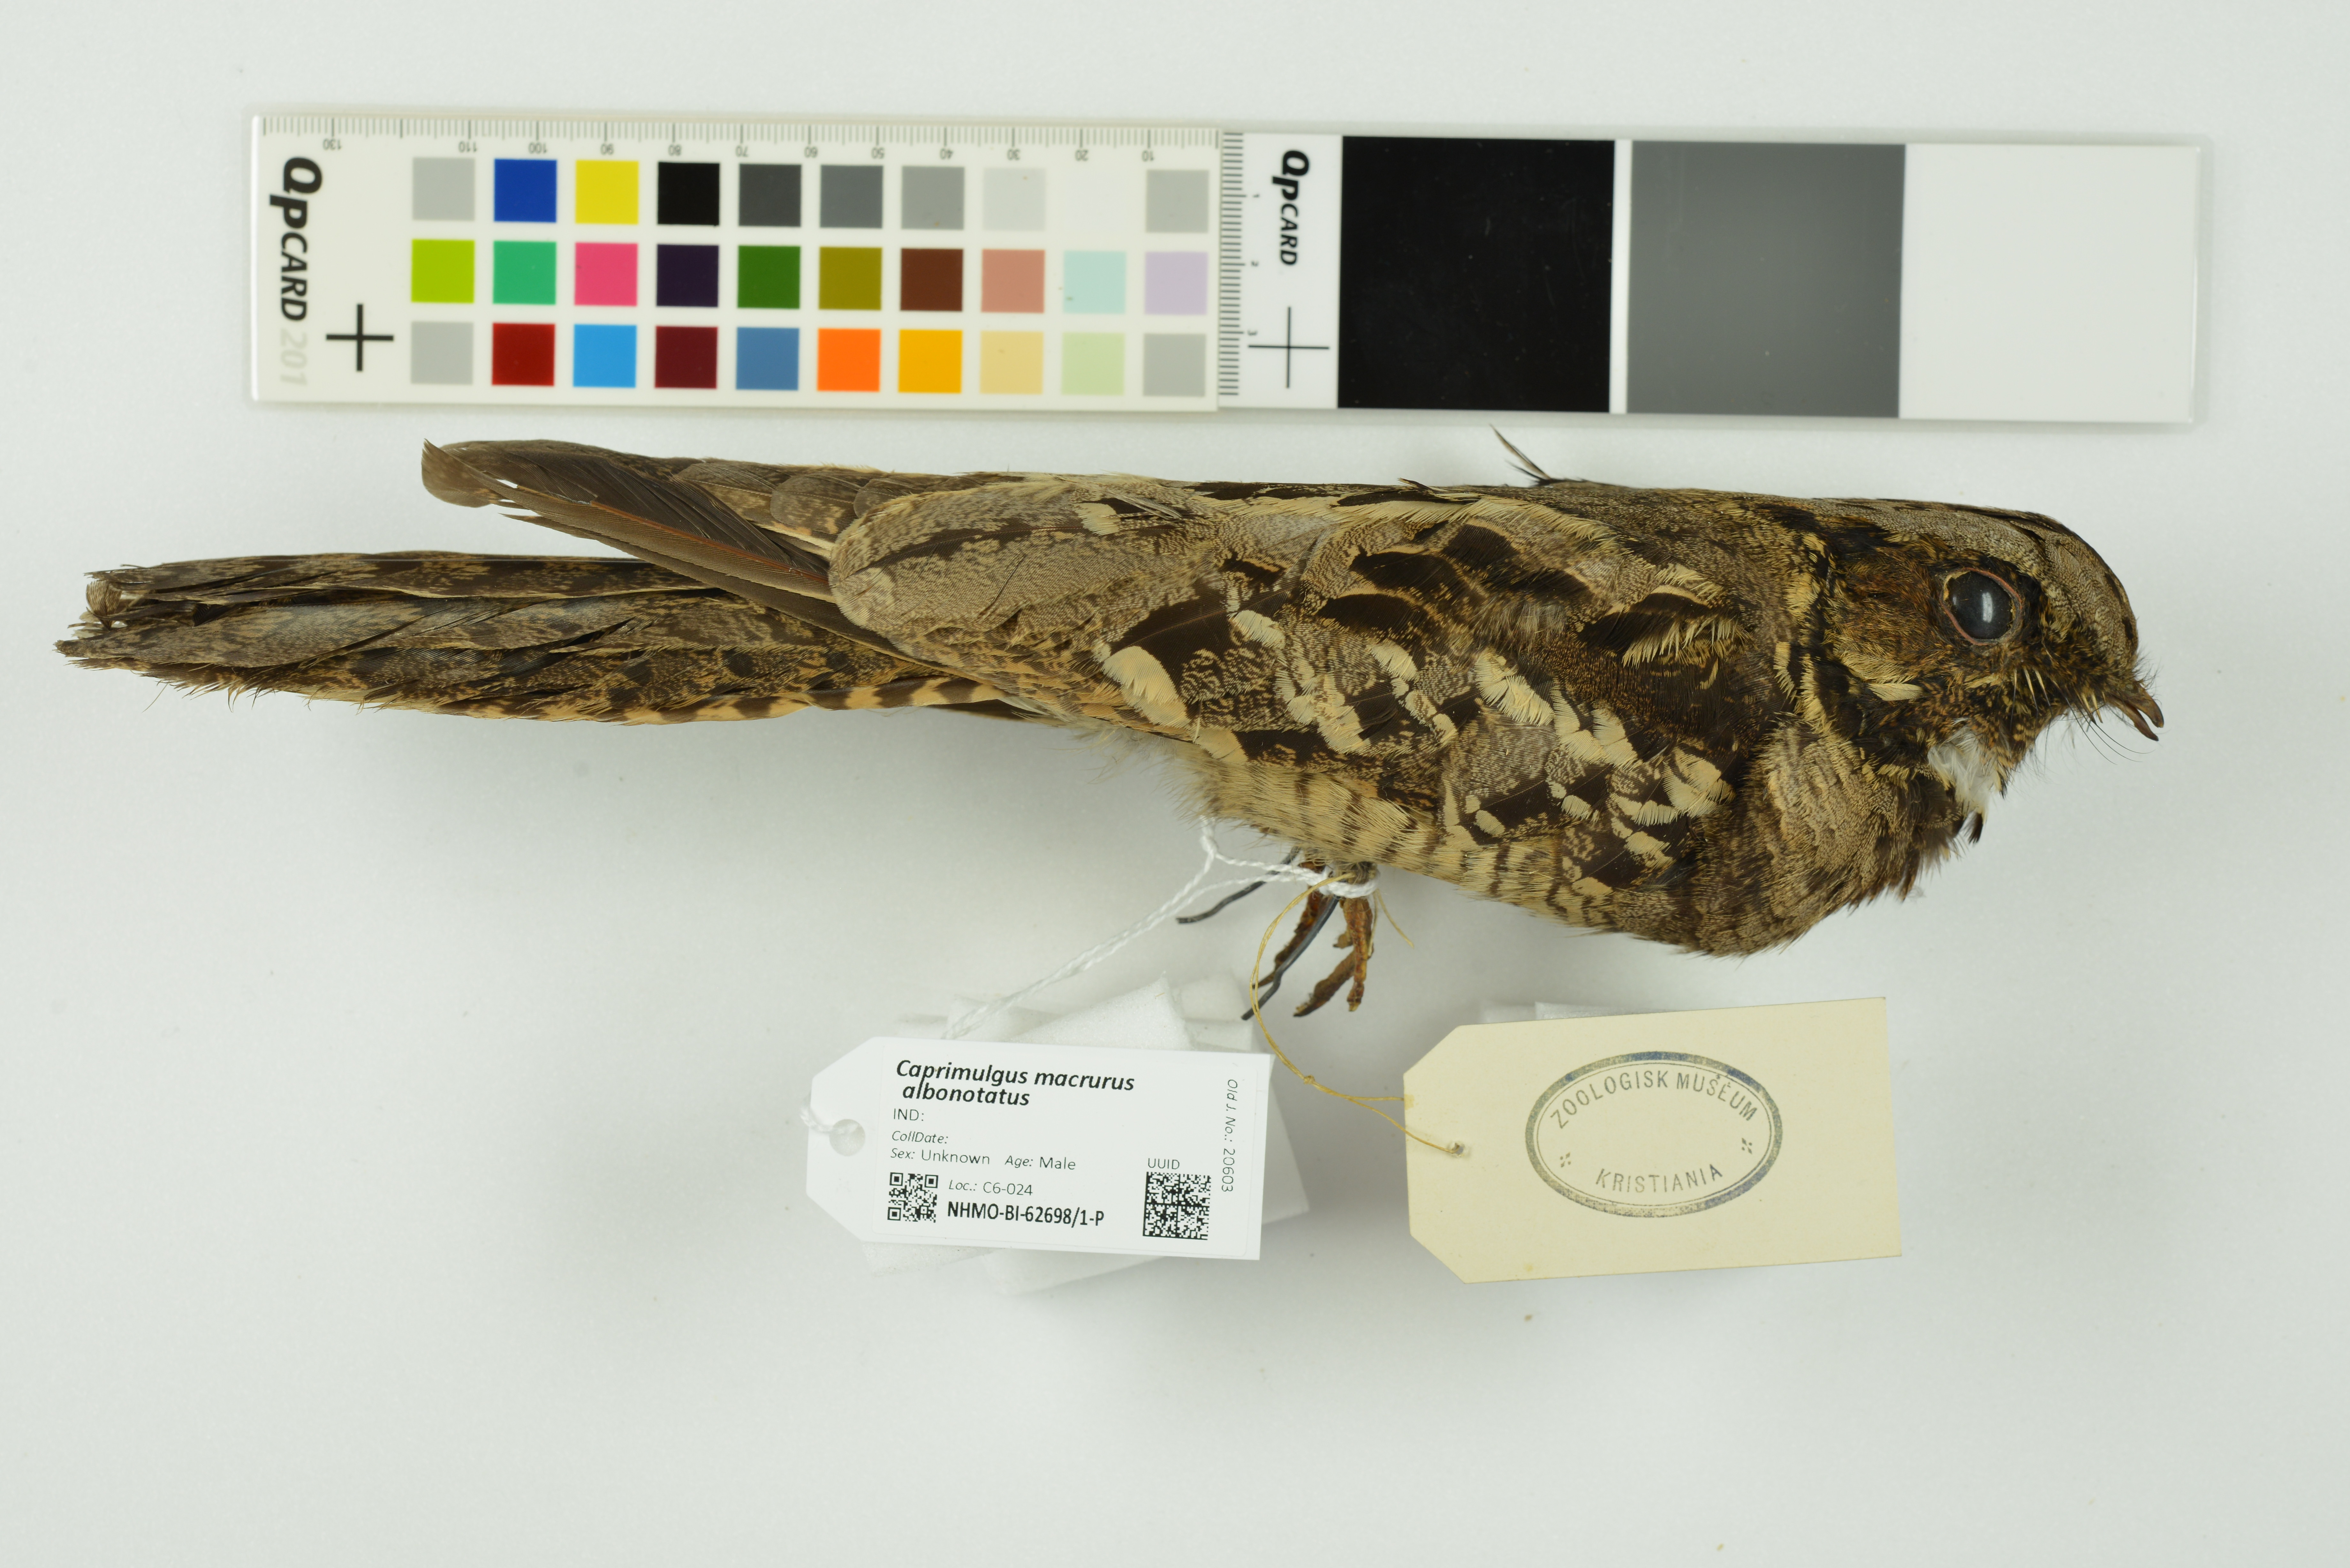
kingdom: Animalia
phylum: Chordata
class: Aves
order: Caprimulgiformes
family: Caprimulgidae
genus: Caprimulgus
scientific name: Caprimulgus macrurus
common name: Large-tailed nightjar
